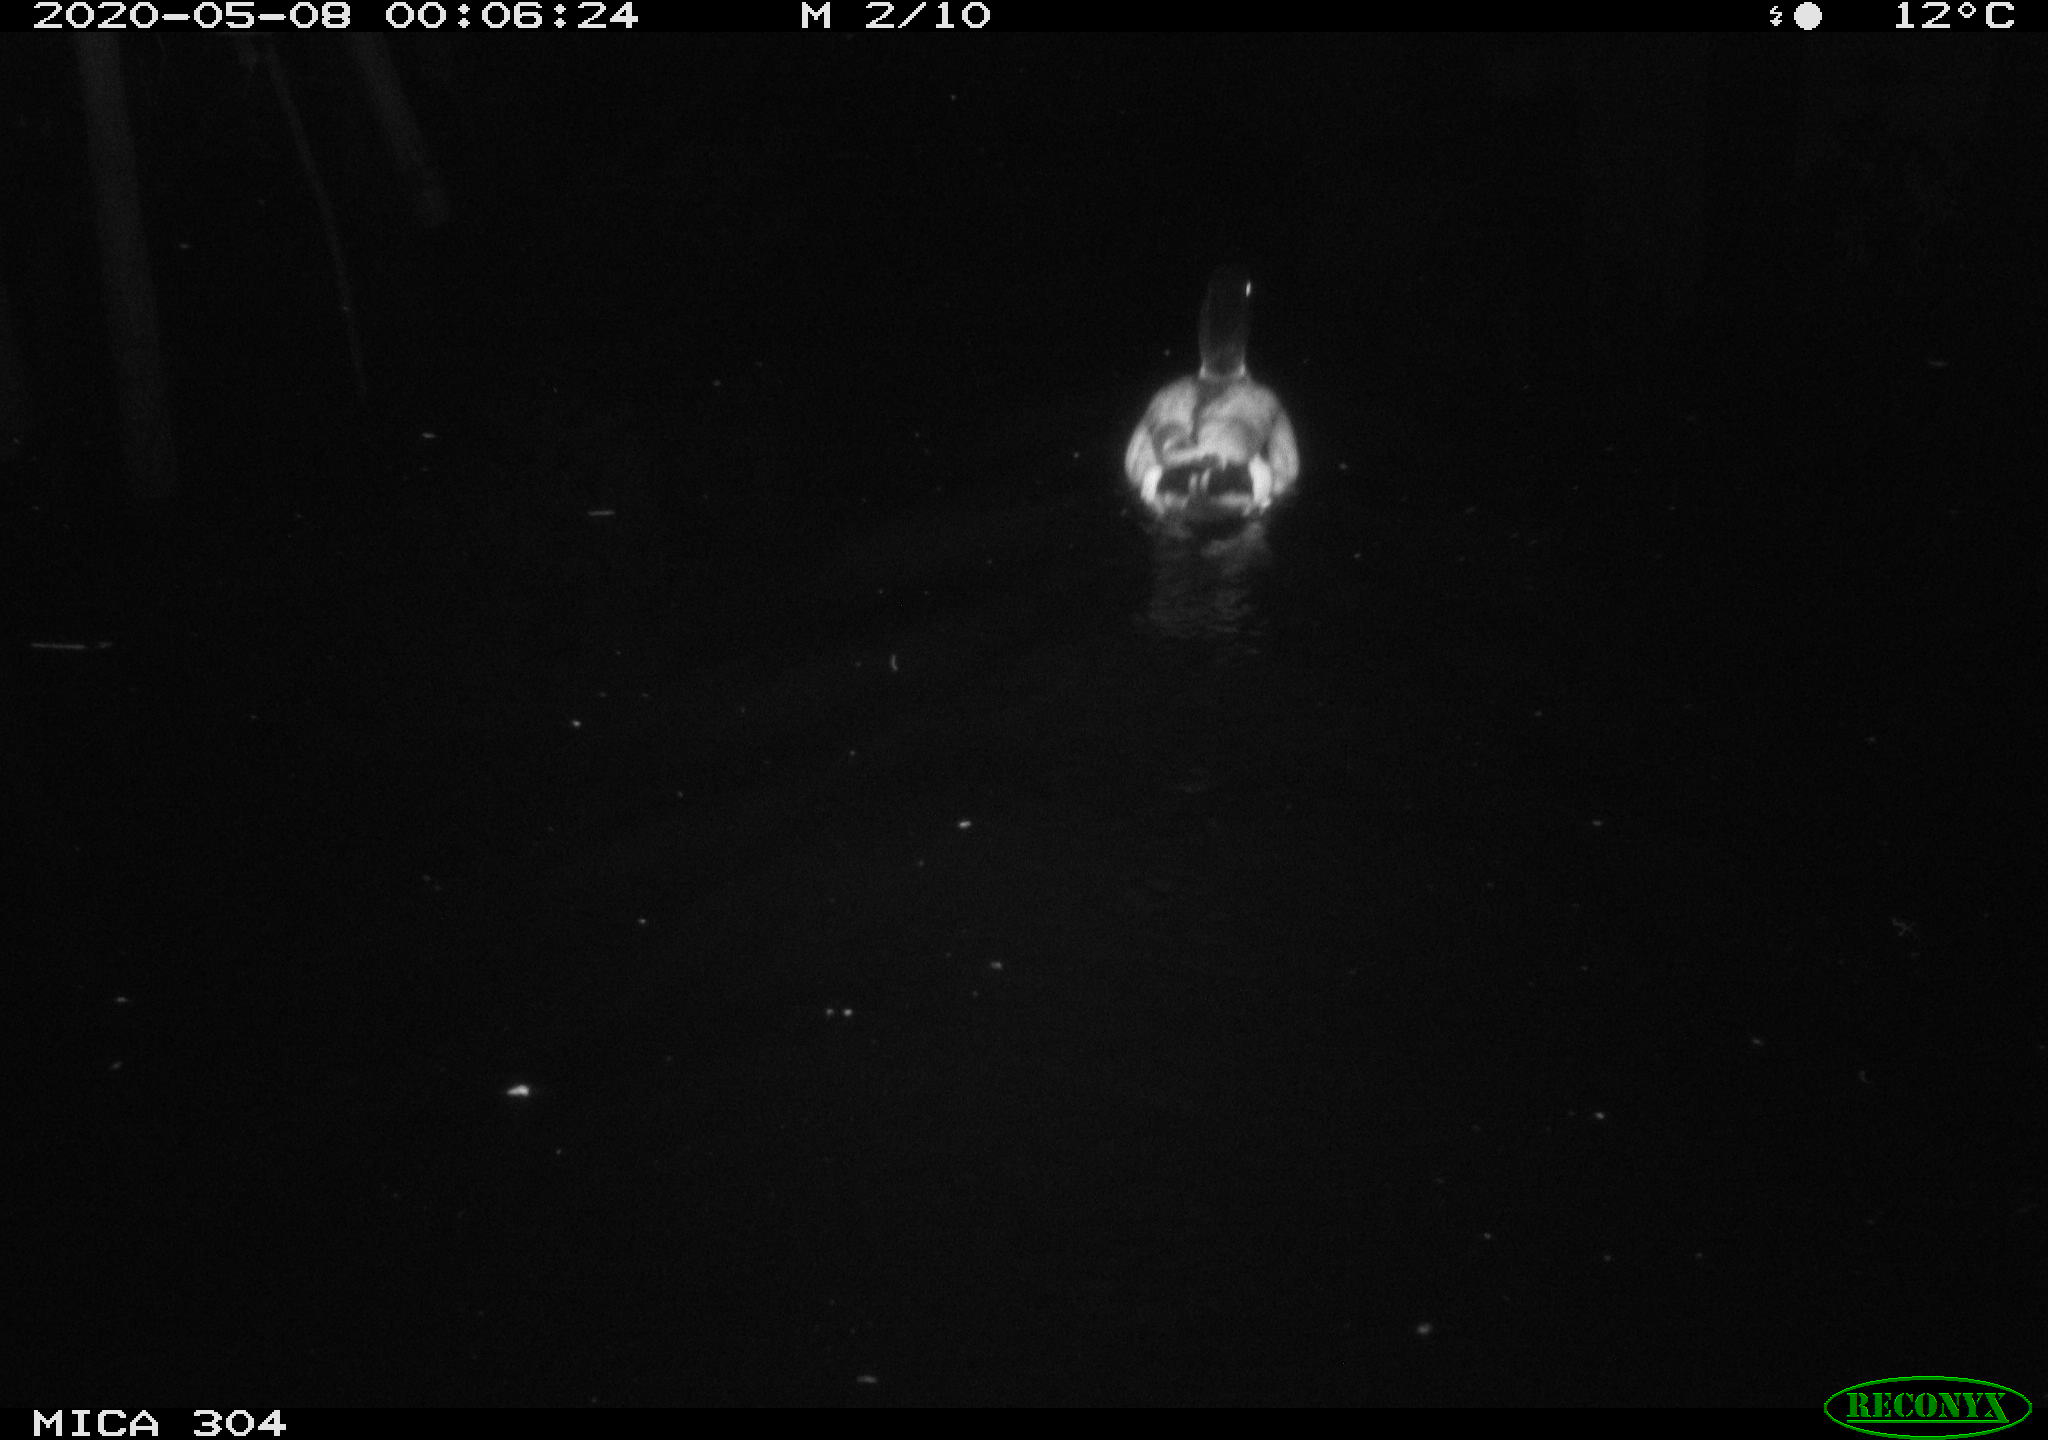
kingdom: Animalia
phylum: Chordata
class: Aves
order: Anseriformes
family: Anatidae
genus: Anas
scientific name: Anas platyrhynchos
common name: Mallard
